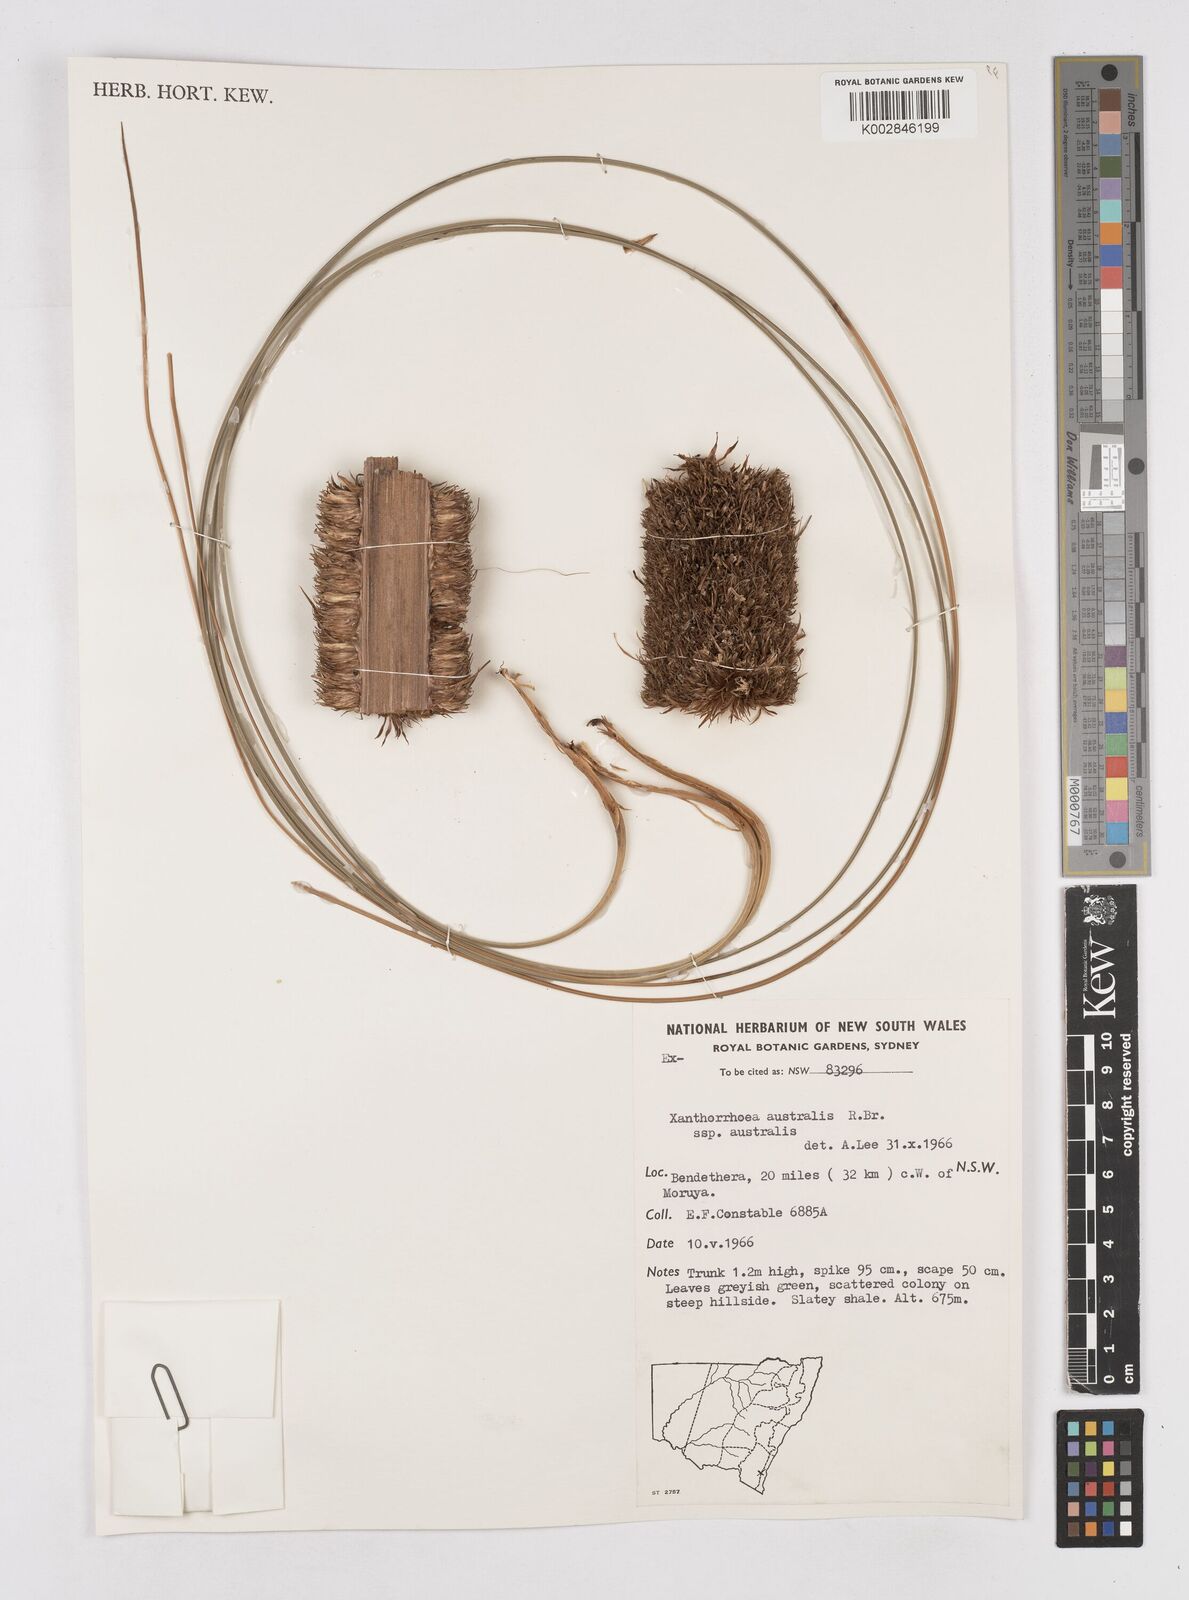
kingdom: Plantae
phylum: Tracheophyta
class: Liliopsida
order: Asparagales
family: Asphodelaceae
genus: Xanthorrhoea
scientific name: Xanthorrhoea acaulis
